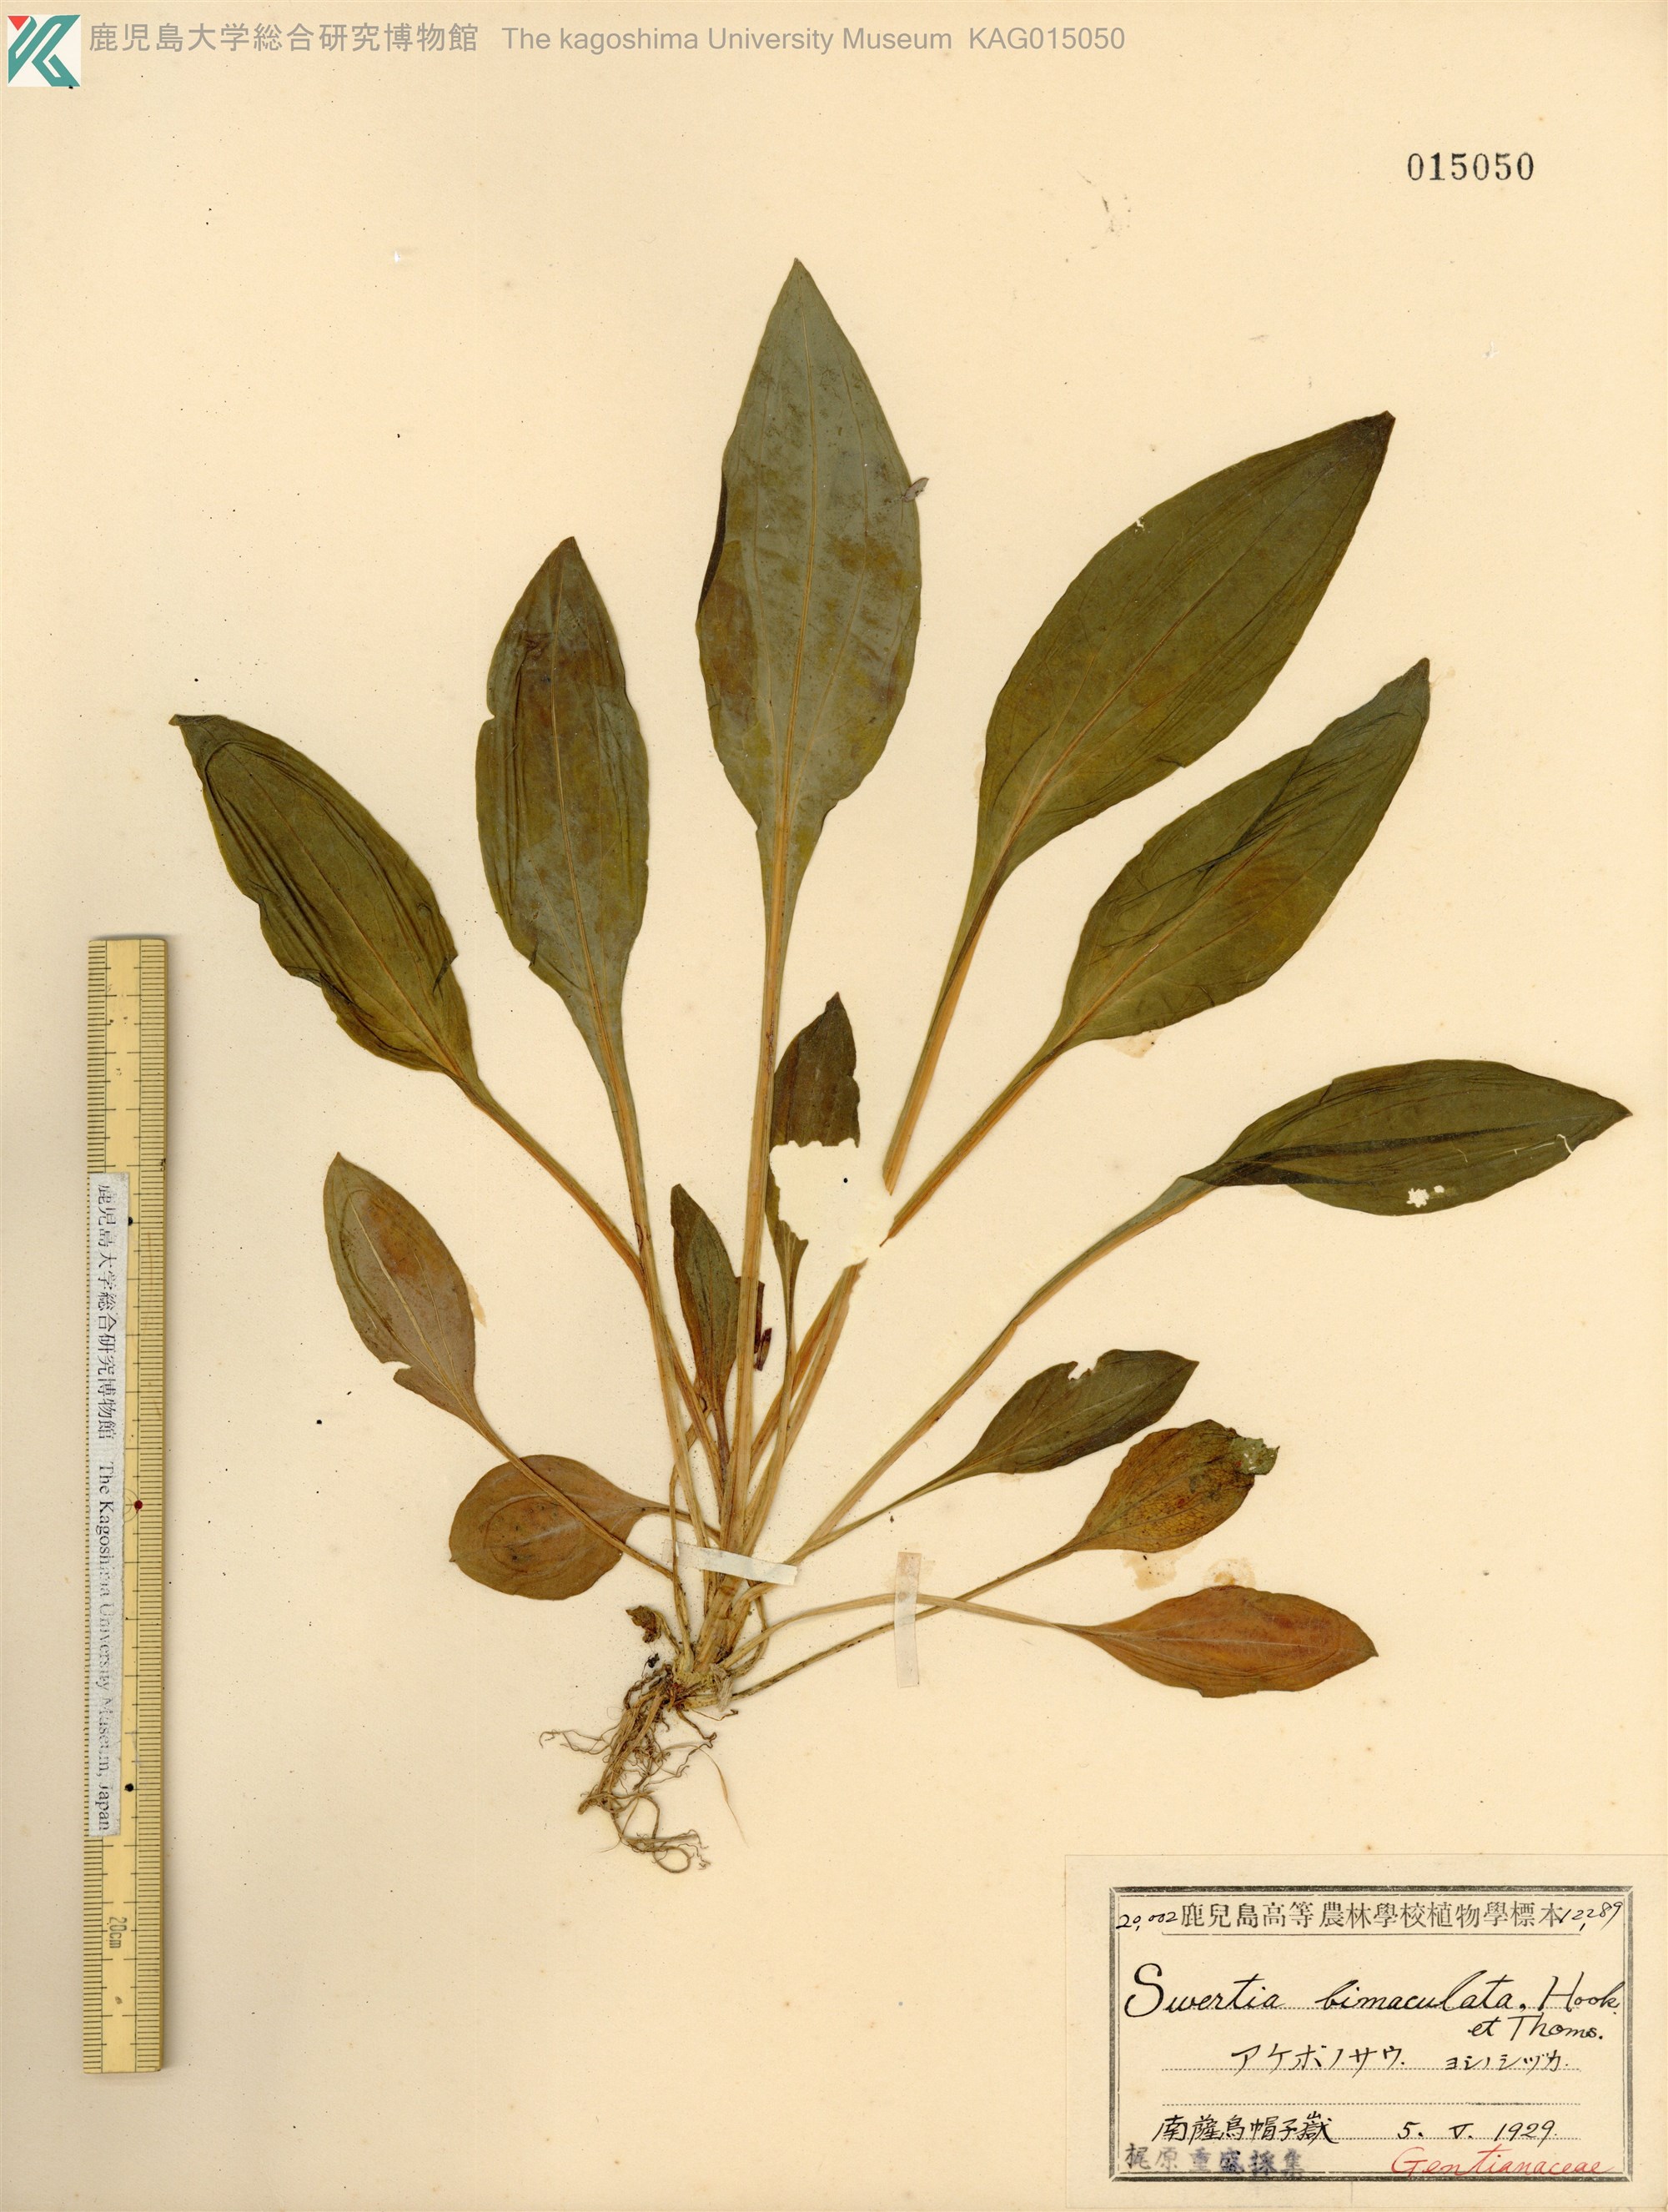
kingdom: Plantae
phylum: Tracheophyta
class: Magnoliopsida
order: Gentianales
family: Gentianaceae
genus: Swertia
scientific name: Swertia bimaculata
